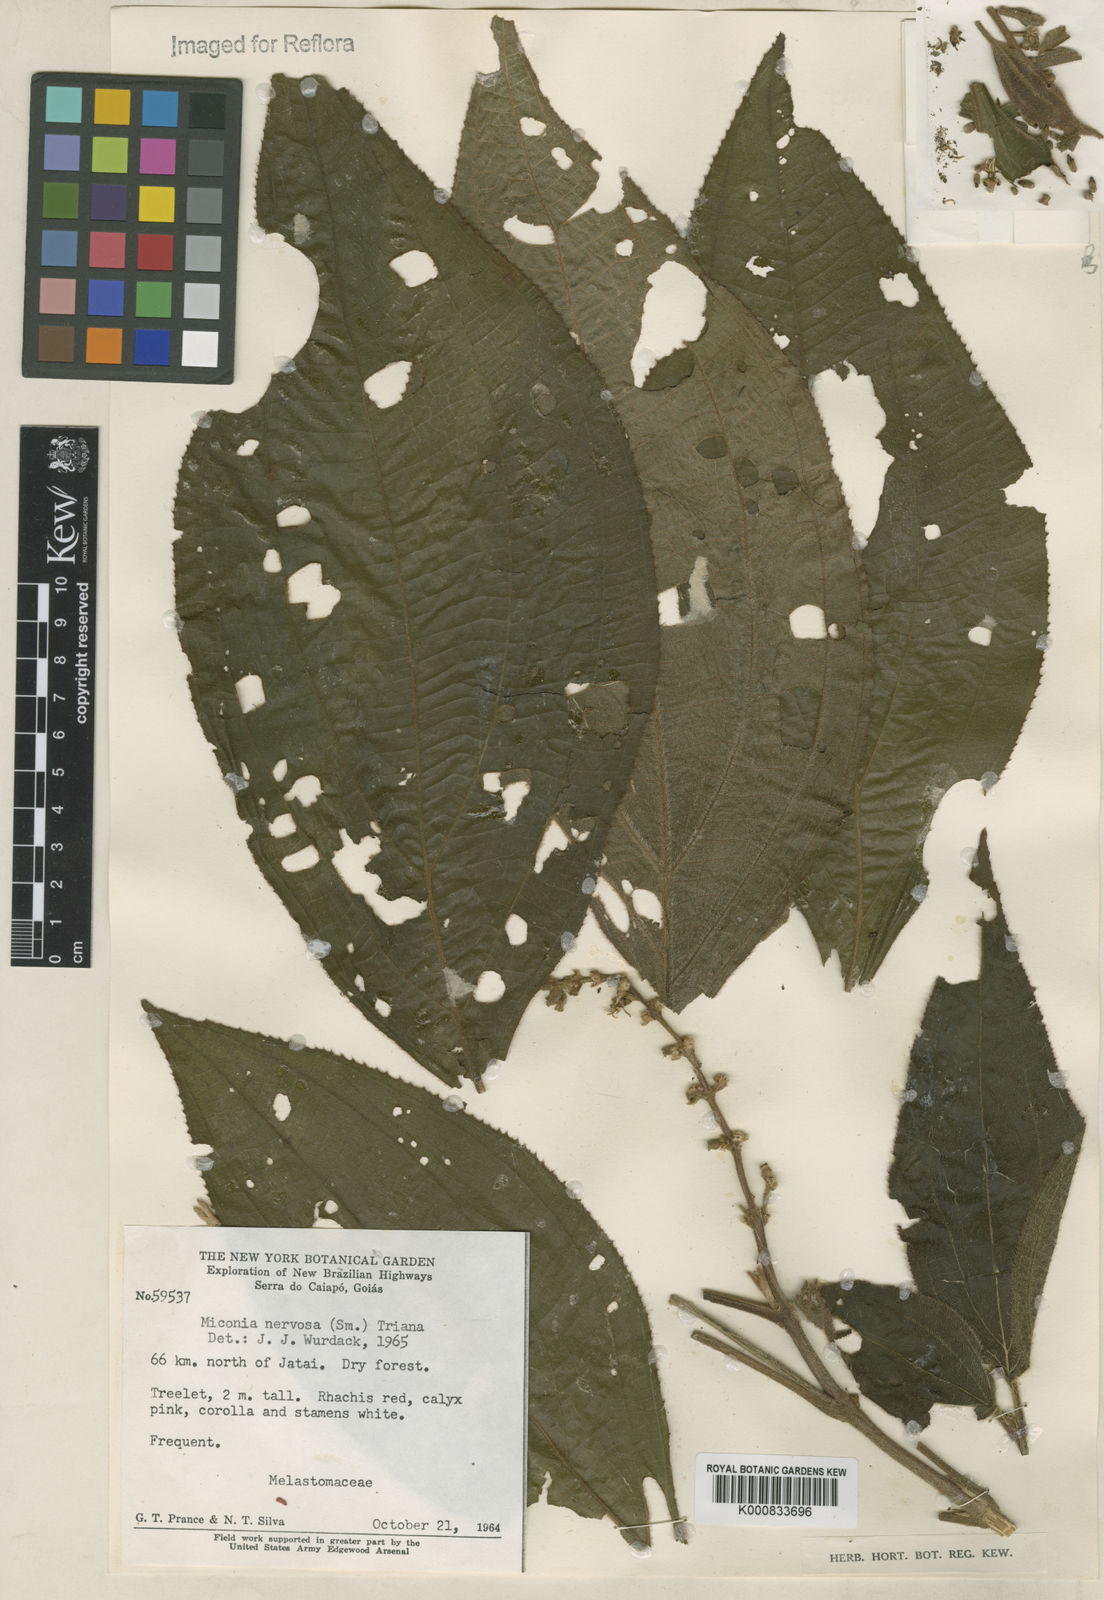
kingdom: Plantae
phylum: Tracheophyta
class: Magnoliopsida
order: Myrtales
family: Melastomataceae
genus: Miconia
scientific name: Miconia nervosa
